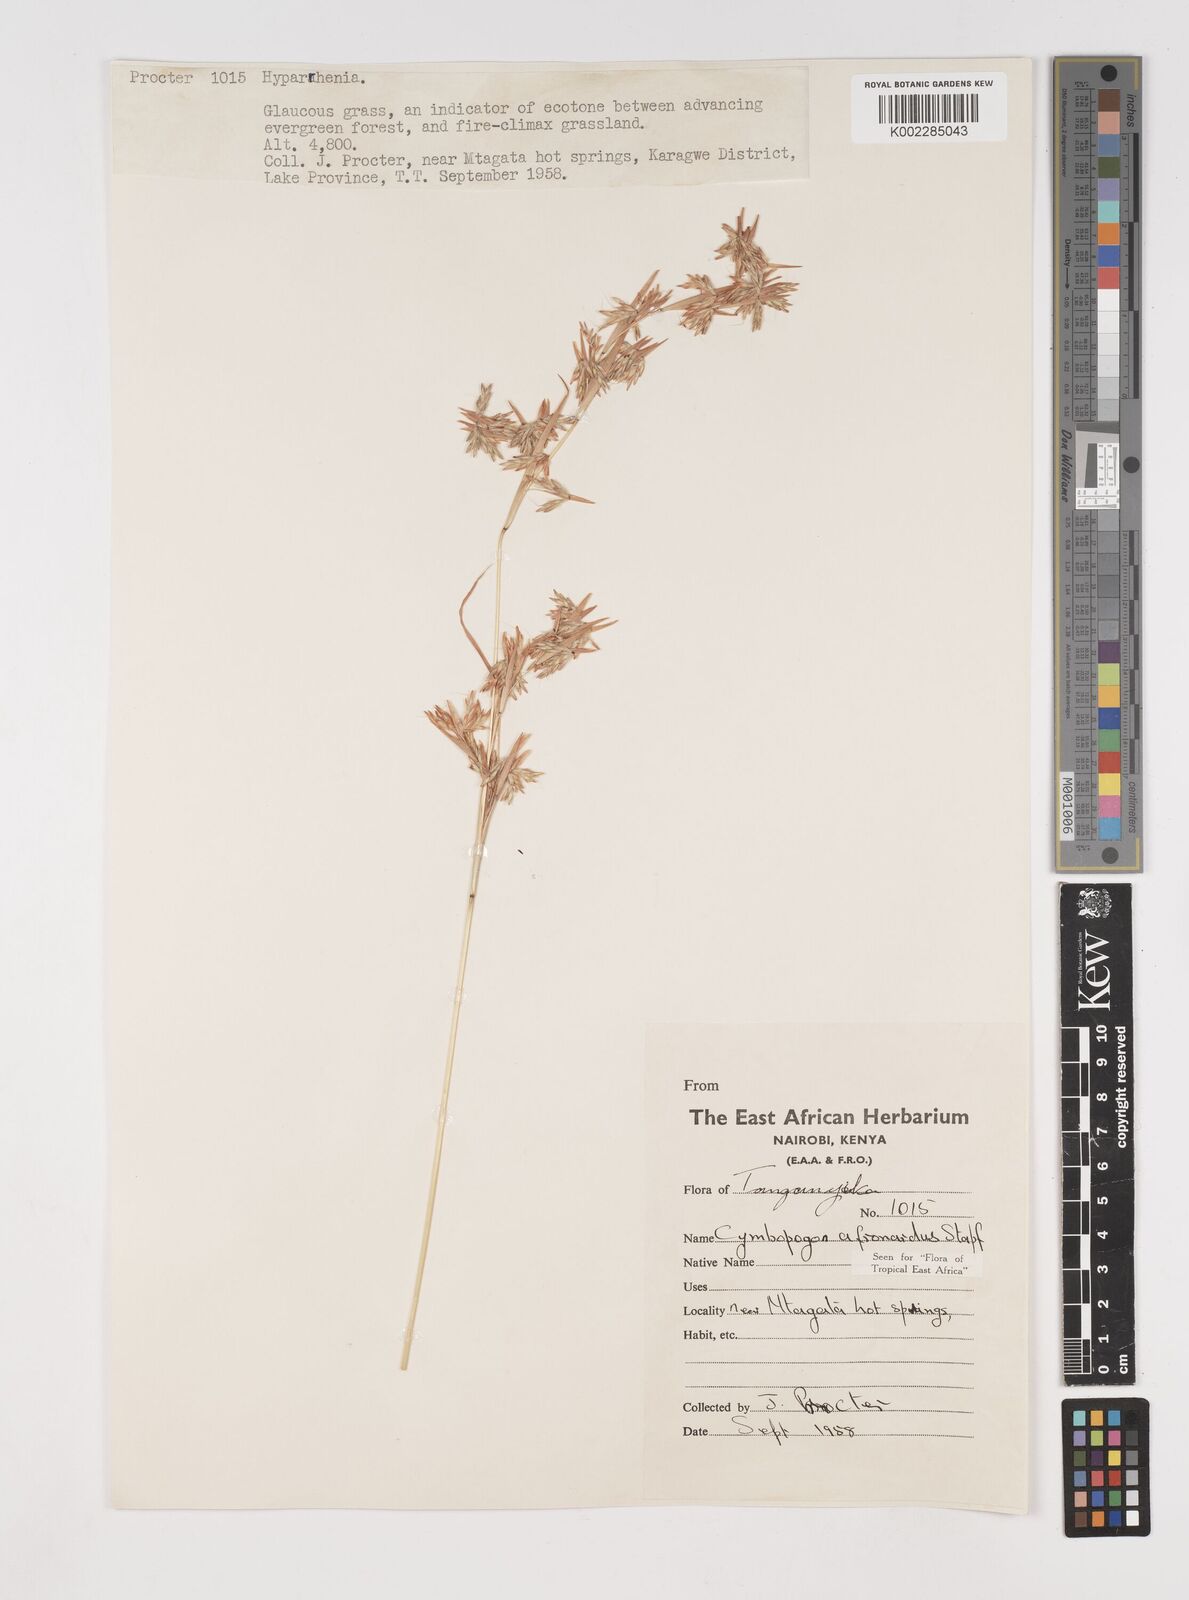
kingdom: Plantae
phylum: Tracheophyta
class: Liliopsida
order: Poales
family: Poaceae
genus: Cymbopogon
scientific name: Cymbopogon nardus
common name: Giant turpentine grass
